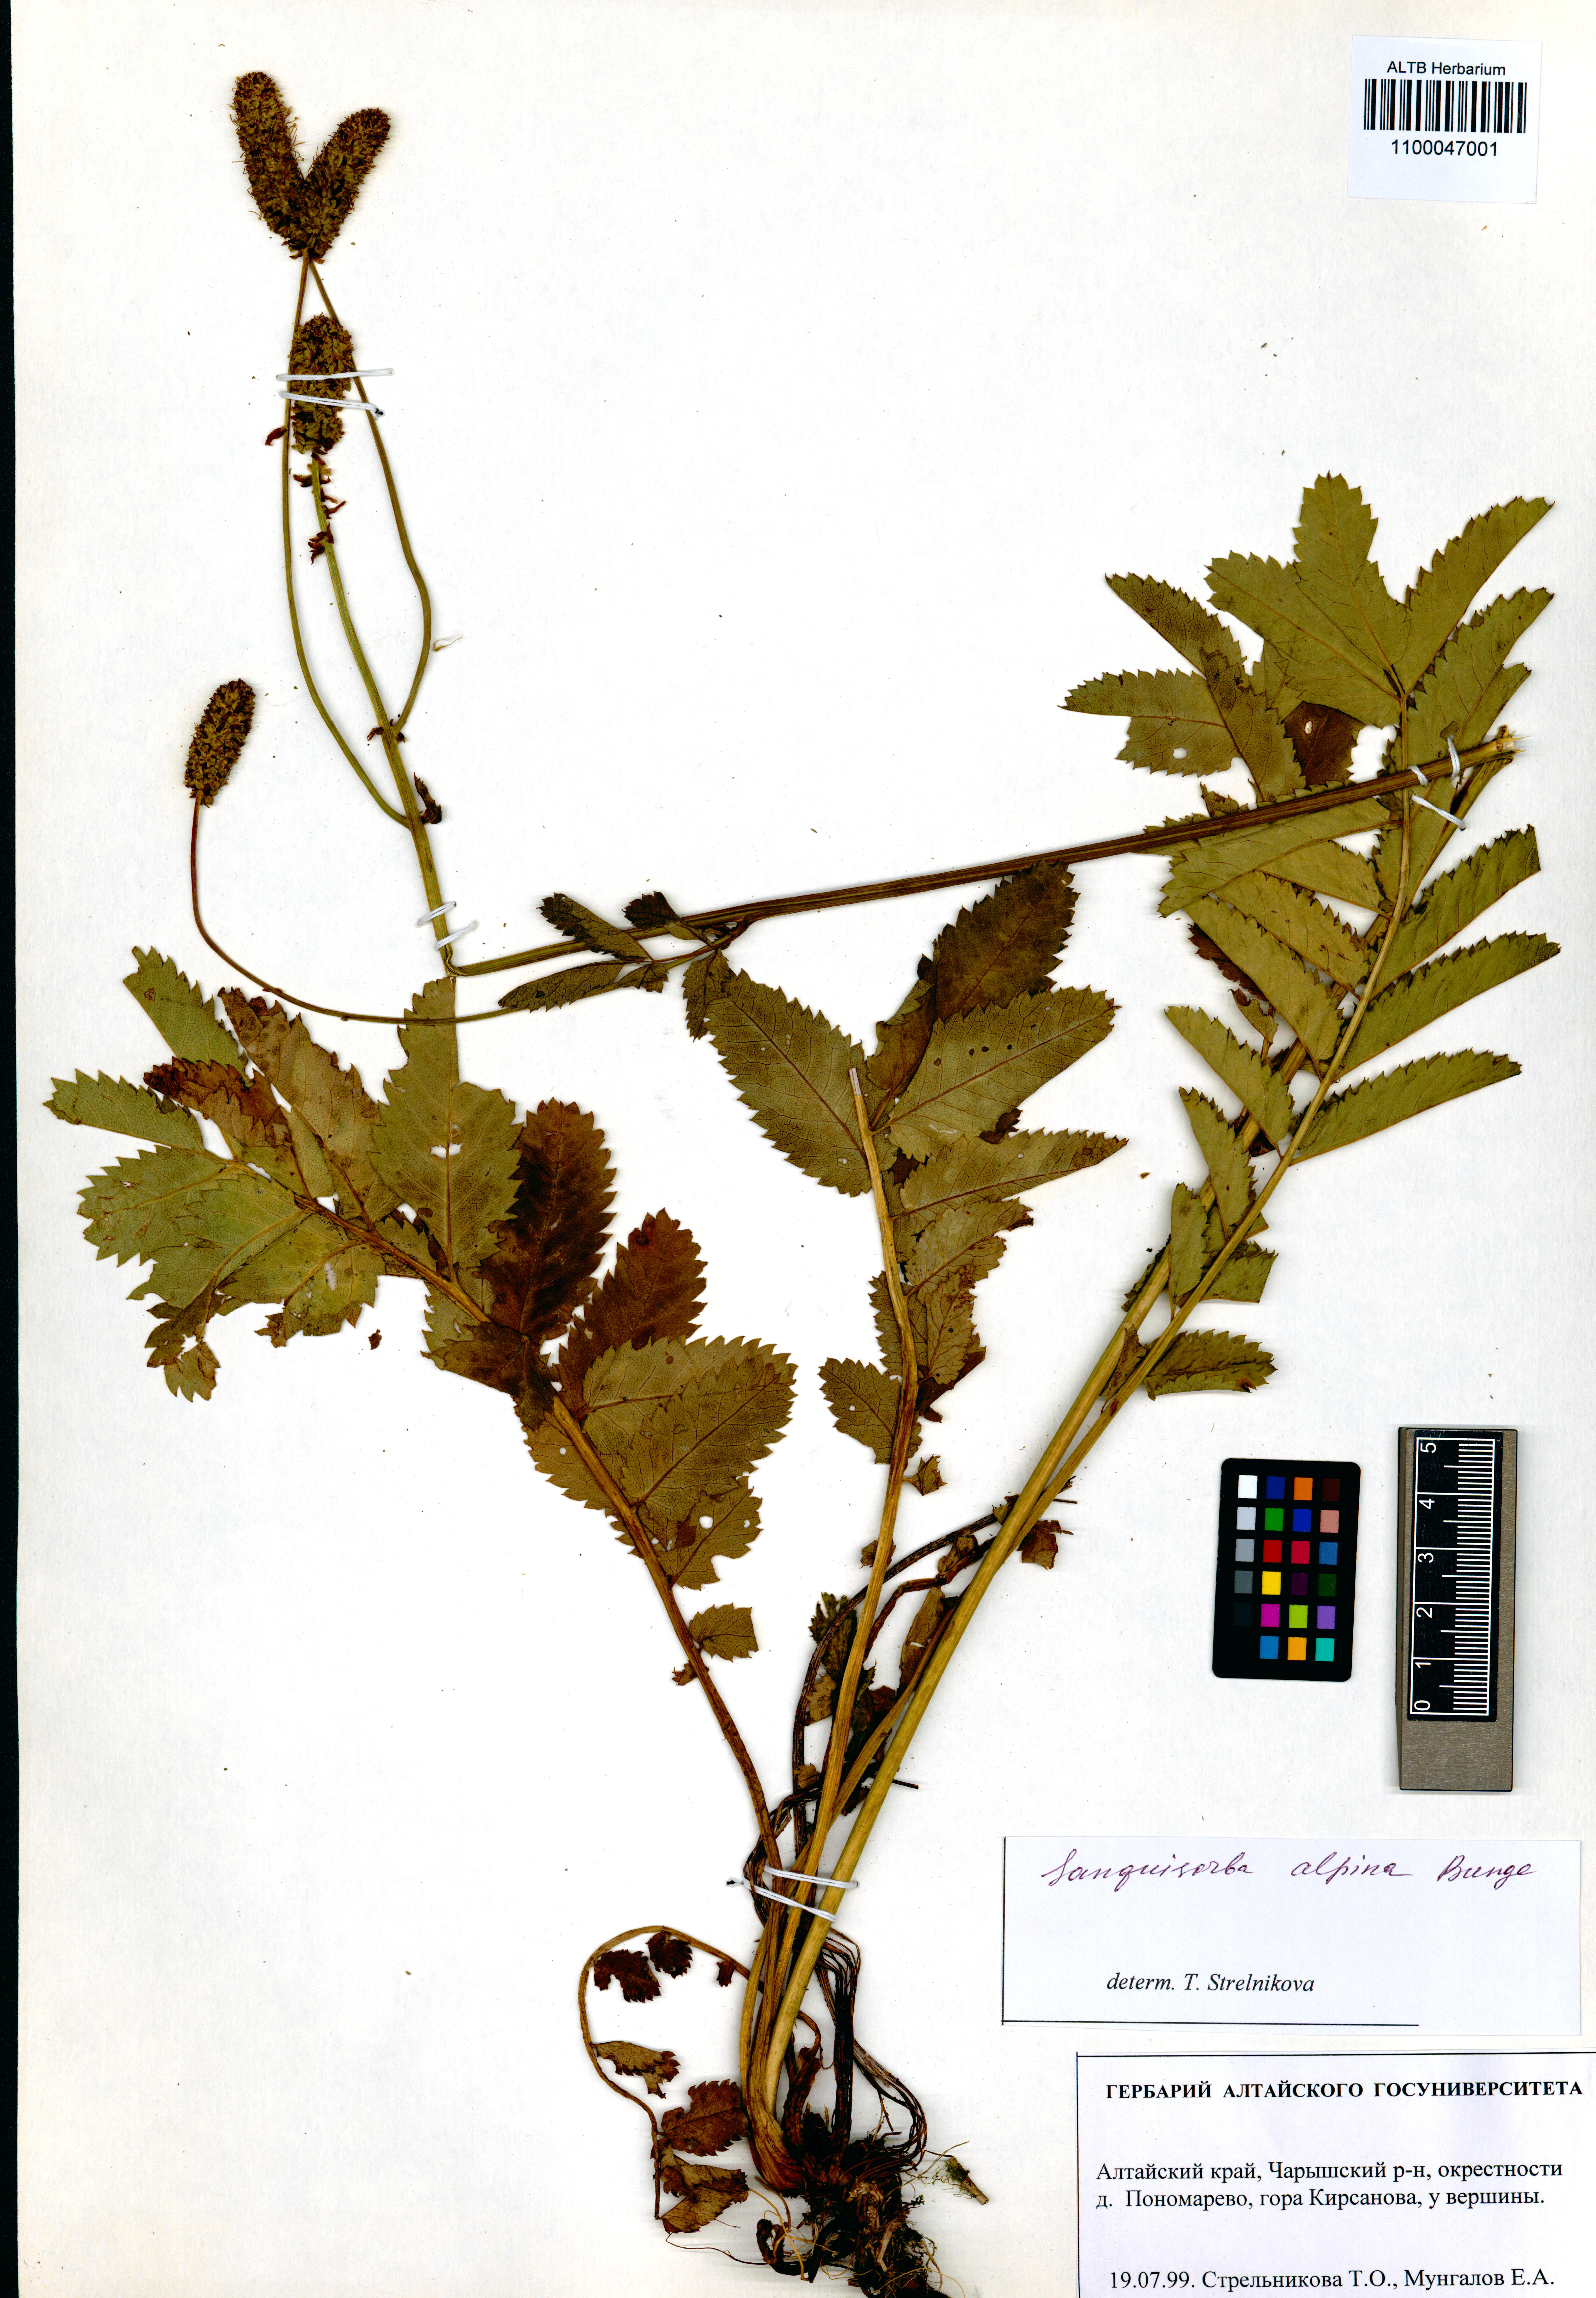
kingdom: Plantae
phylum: Tracheophyta
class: Magnoliopsida
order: Rosales
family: Rosaceae
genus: Sanguisorba
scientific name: Sanguisorba alpina
